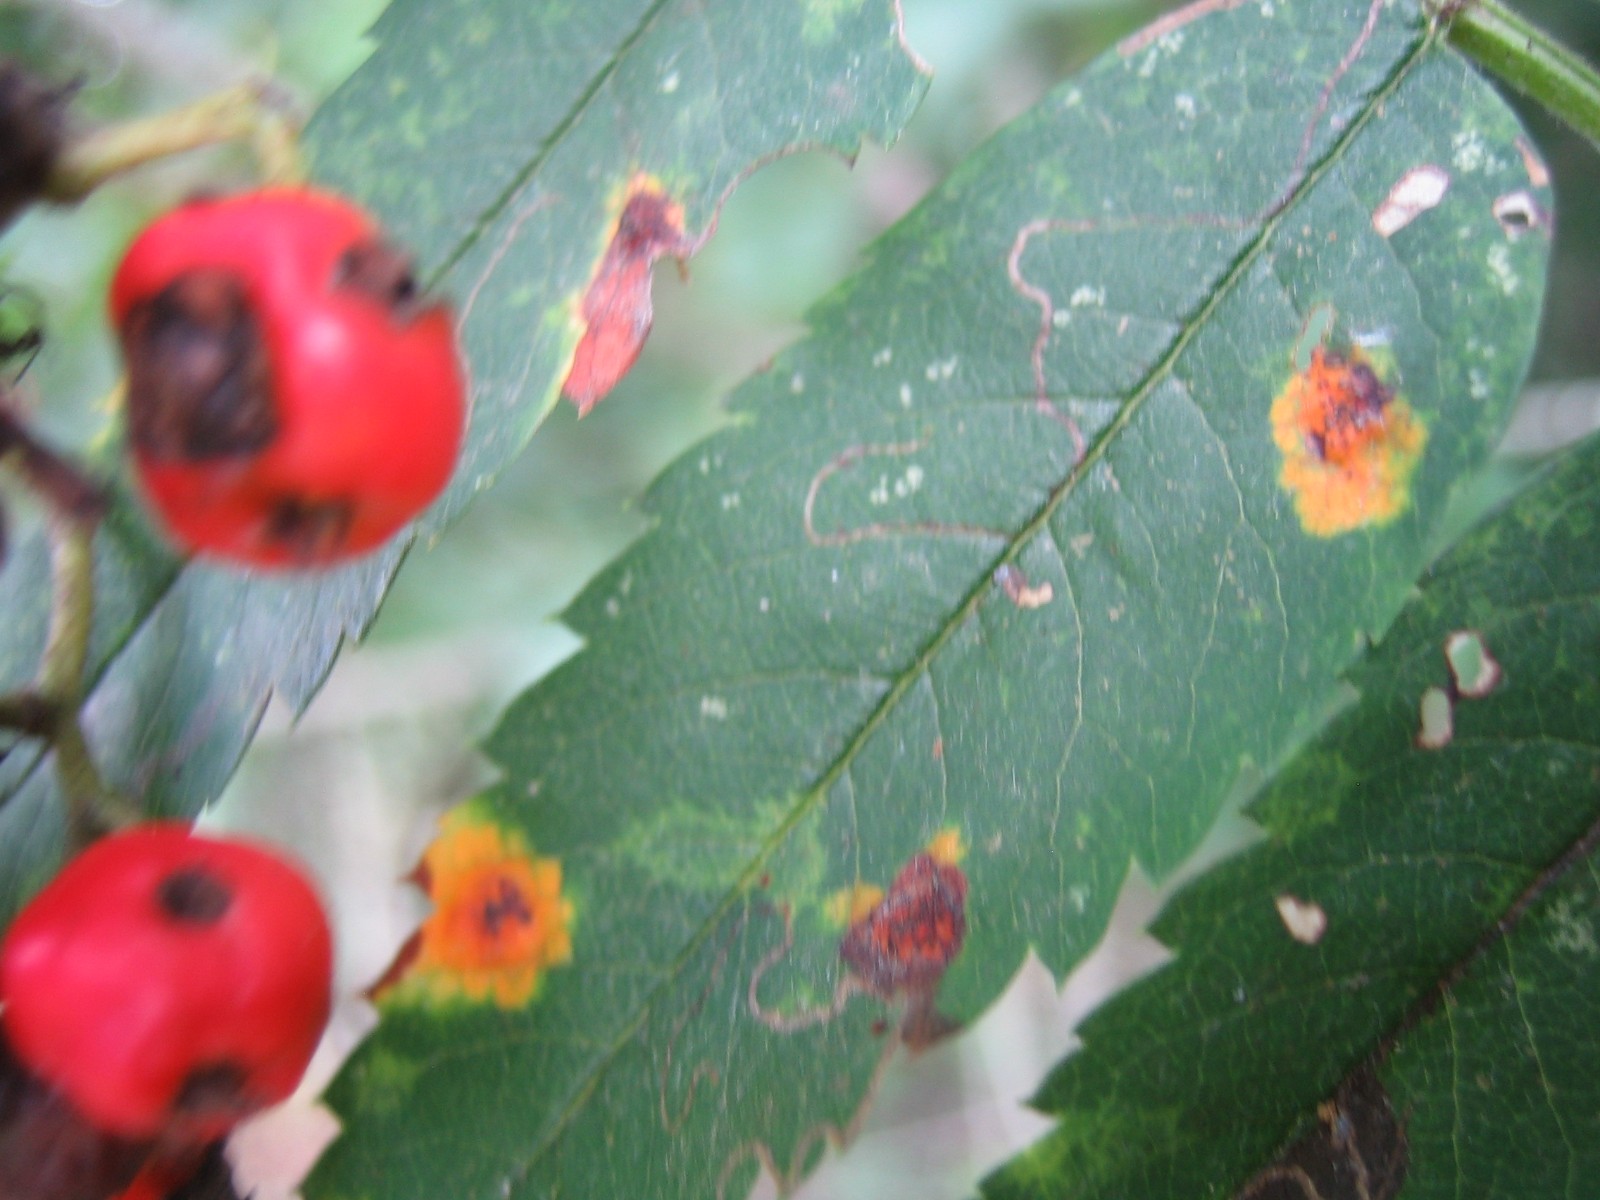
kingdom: Fungi
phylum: Basidiomycota
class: Pucciniomycetes
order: Pucciniales
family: Gymnosporangiaceae
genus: Gymnosporangium
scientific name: Gymnosporangium cornutum
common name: rønnehorn-bævrerust
